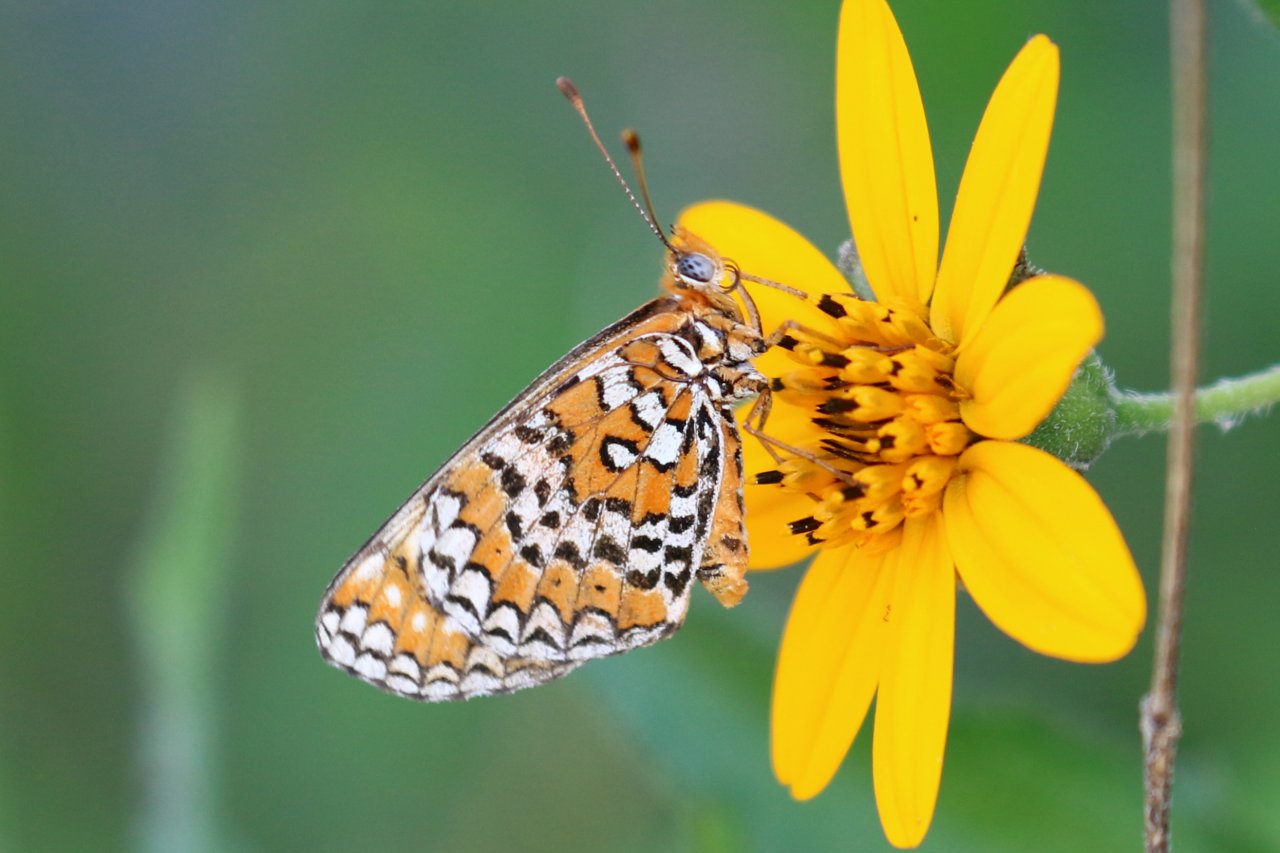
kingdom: Animalia
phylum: Arthropoda
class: Insecta
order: Lepidoptera
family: Nymphalidae
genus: Poladryas
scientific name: Poladryas minuta
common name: Dotted Checkerspot
